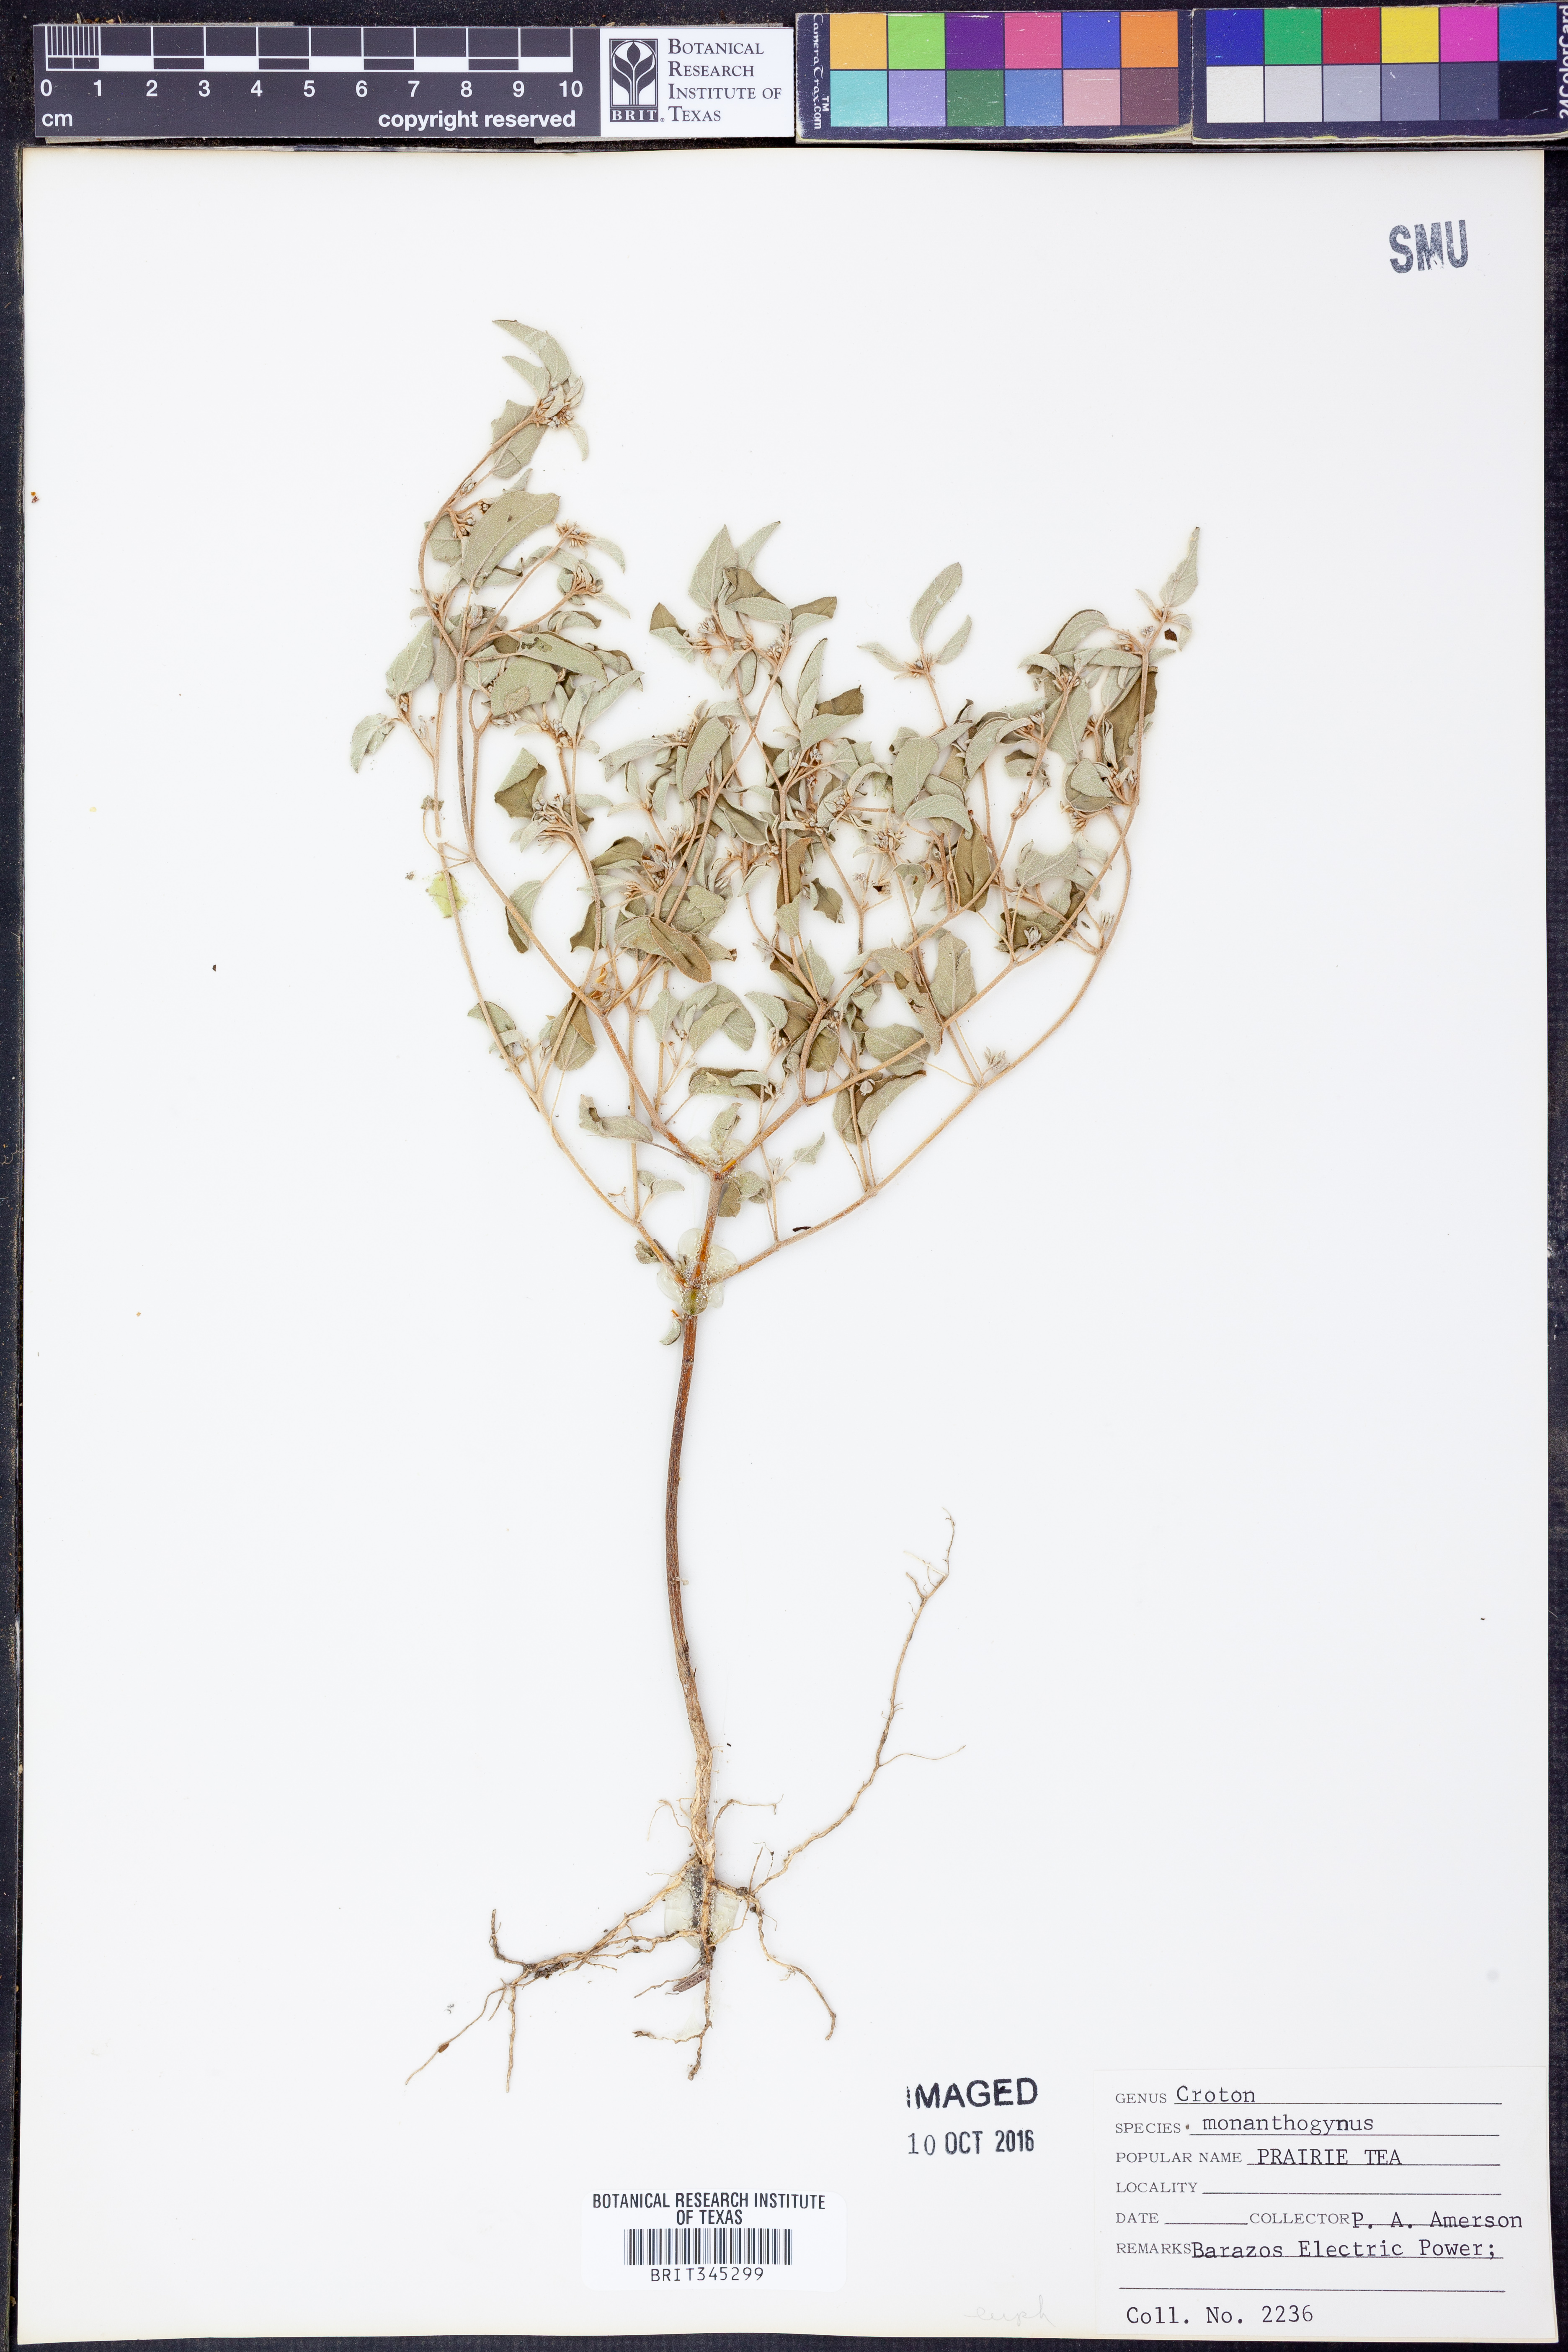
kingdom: Plantae
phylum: Tracheophyta
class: Magnoliopsida
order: Malpighiales
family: Euphorbiaceae
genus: Croton
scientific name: Croton monanthogynus
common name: One-seed croton
